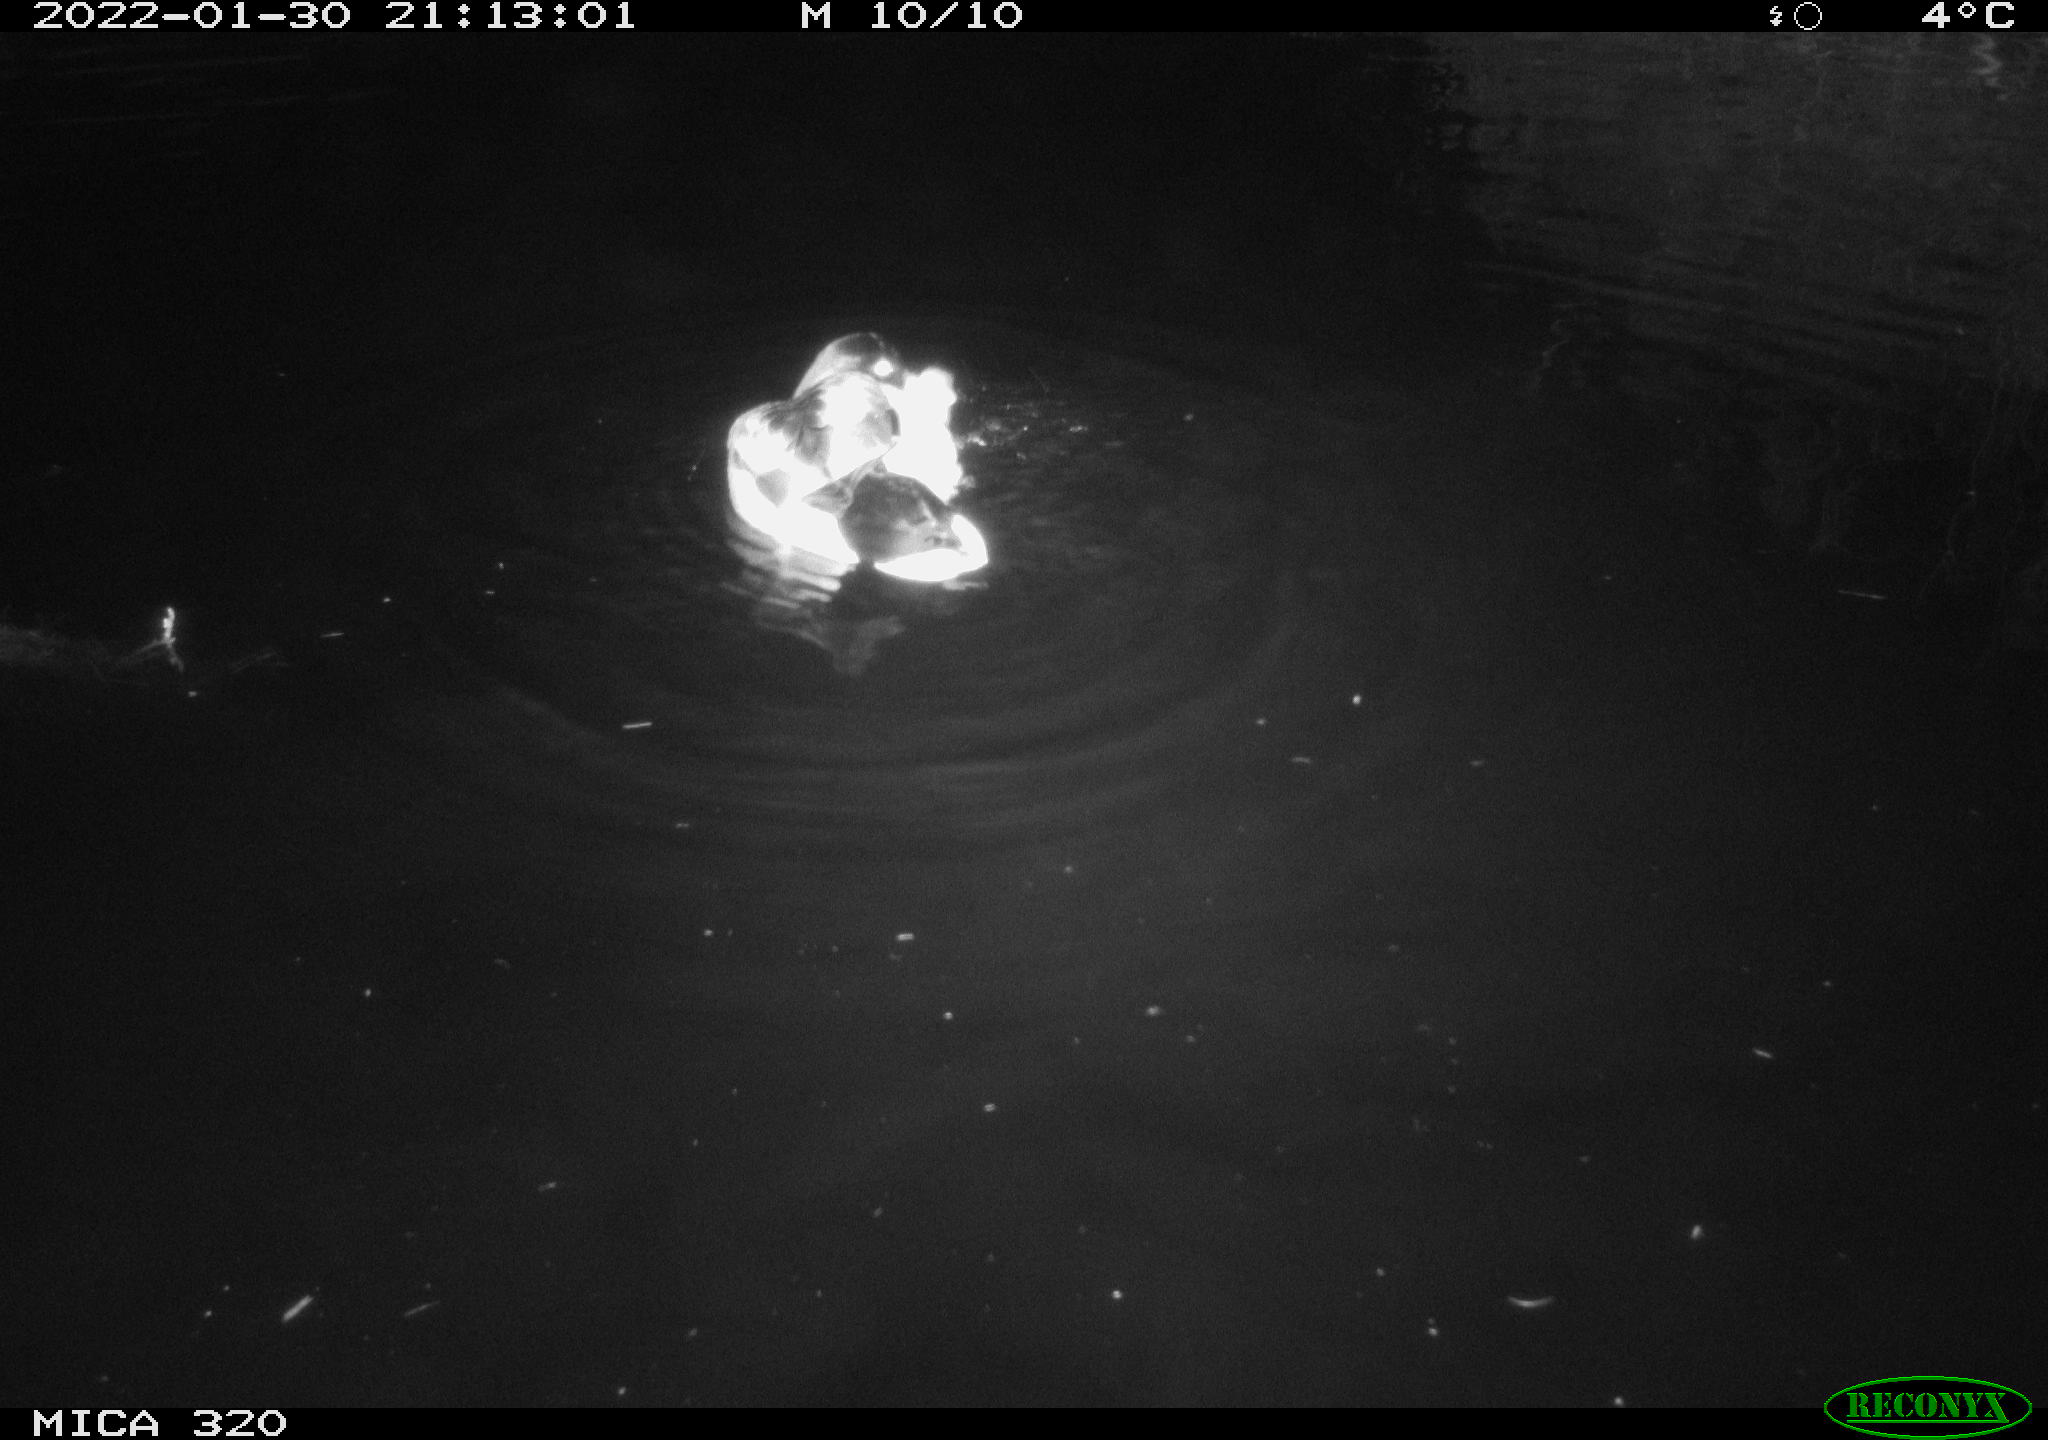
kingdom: Animalia
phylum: Chordata
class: Aves
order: Anseriformes
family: Anatidae
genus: Anas
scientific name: Anas
